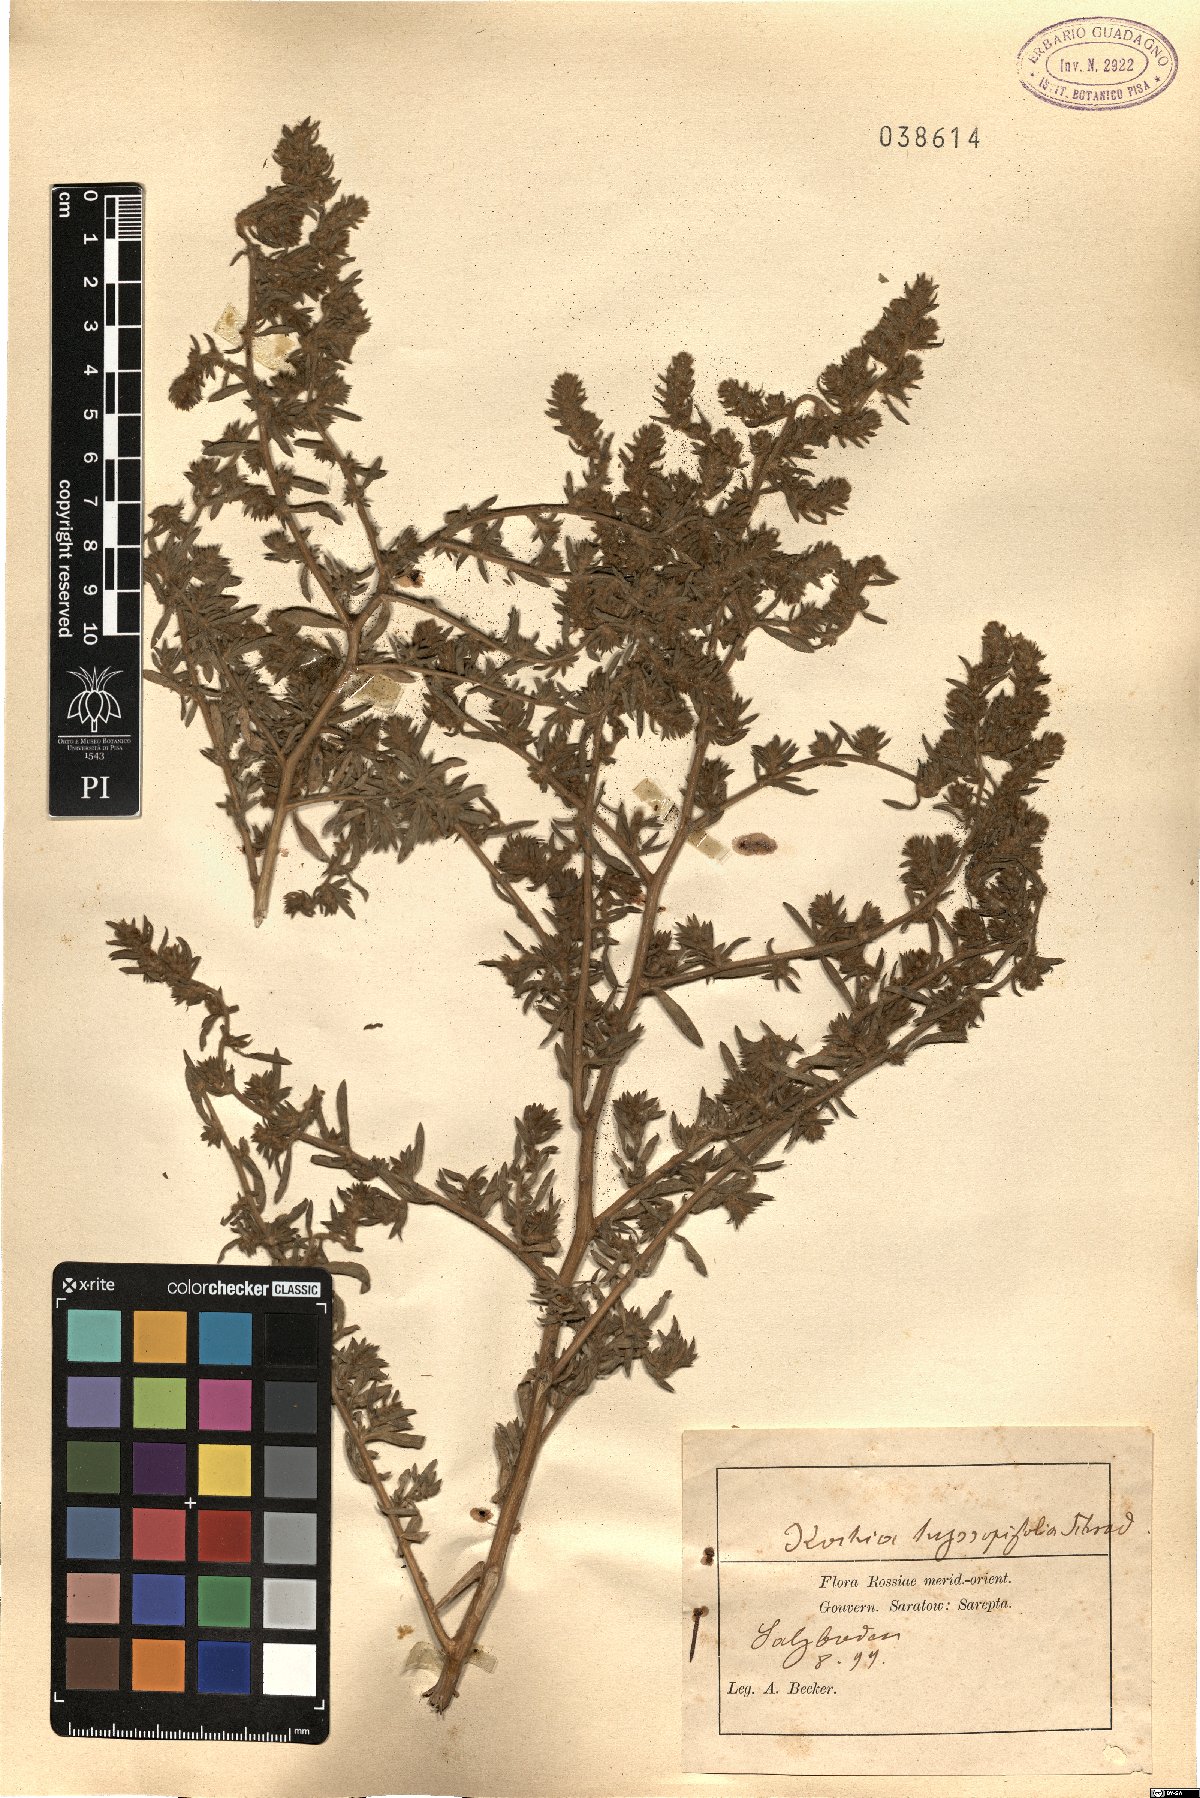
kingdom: Plantae
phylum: Tracheophyta
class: Magnoliopsida
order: Caryophyllales
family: Amaranthaceae
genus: Bassia
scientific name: Bassia hyssopifolia
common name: Fivehorn smotherweed
